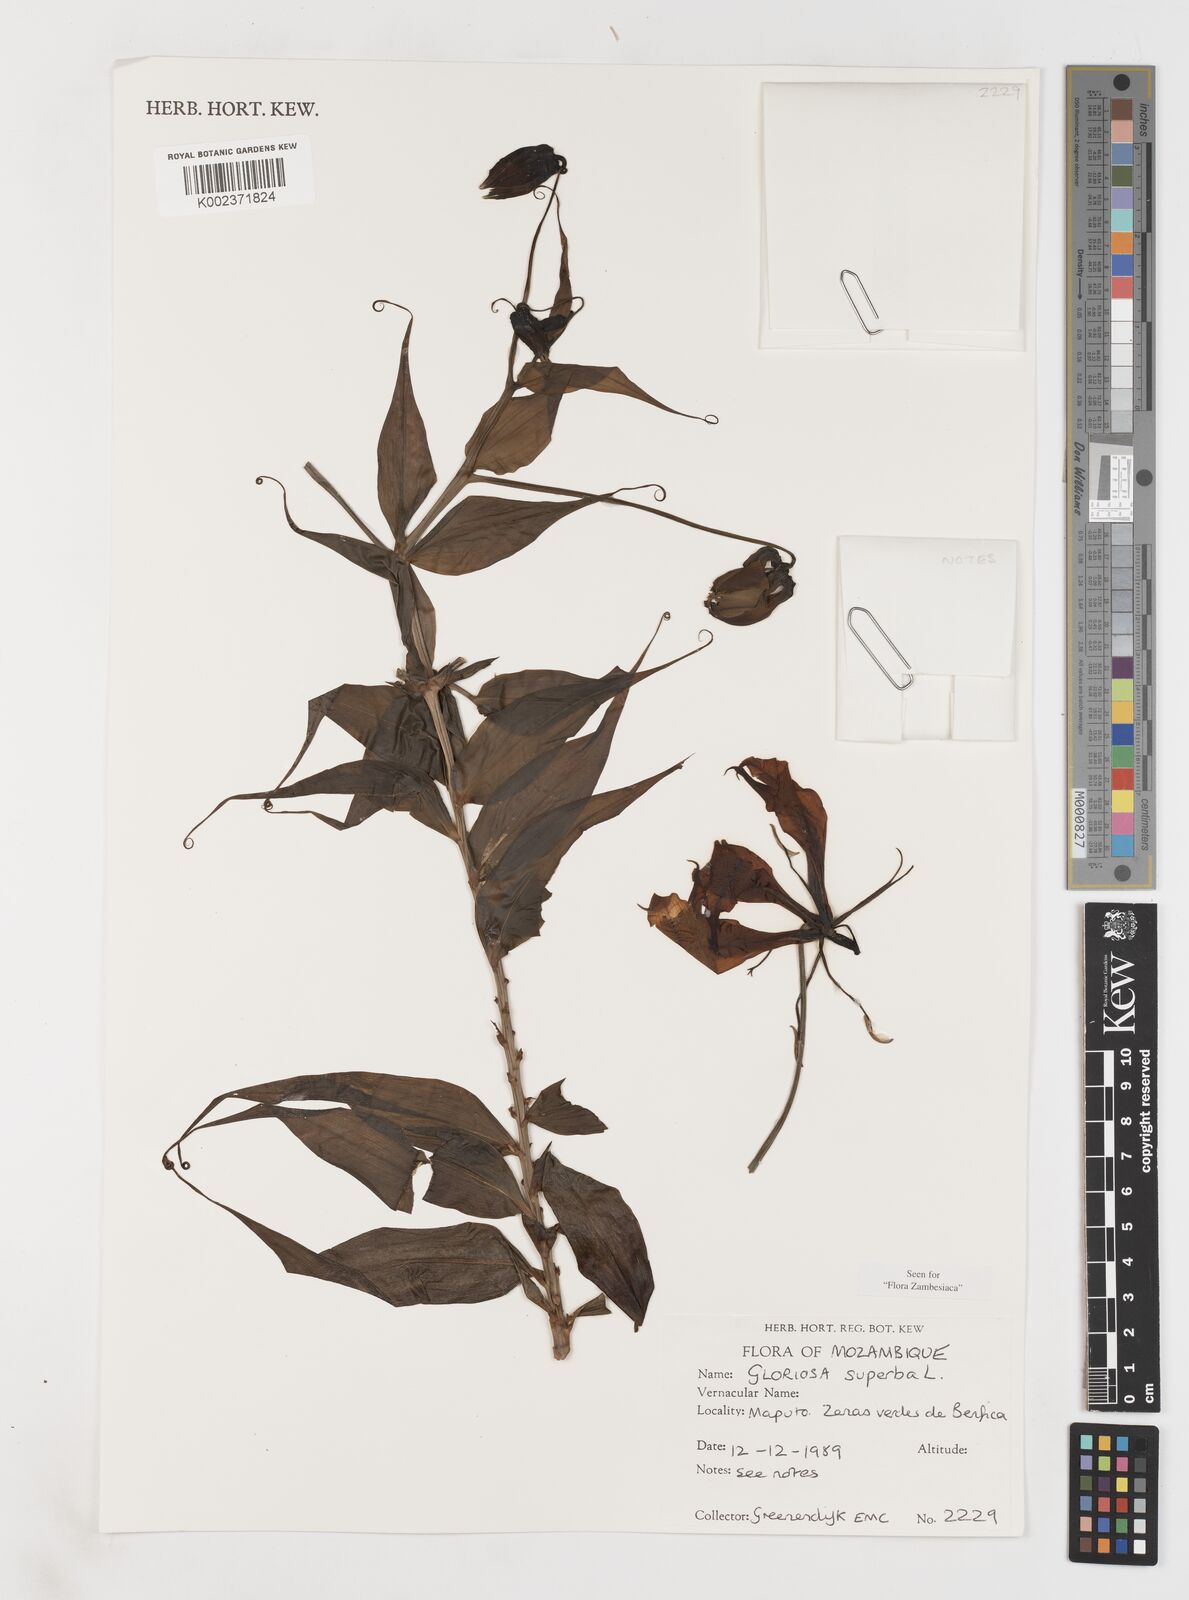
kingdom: Plantae
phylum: Tracheophyta
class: Liliopsida
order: Liliales
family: Colchicaceae
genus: Gloriosa
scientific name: Gloriosa simplex
